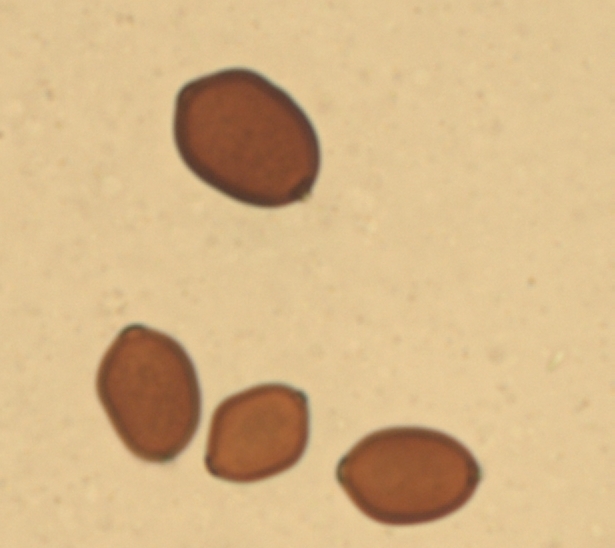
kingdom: Fungi
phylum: Basidiomycota
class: Agaricomycetes
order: Agaricales
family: Psathyrellaceae
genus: Coprinopsis
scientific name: Coprinopsis nivea
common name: snehvid blækhat
